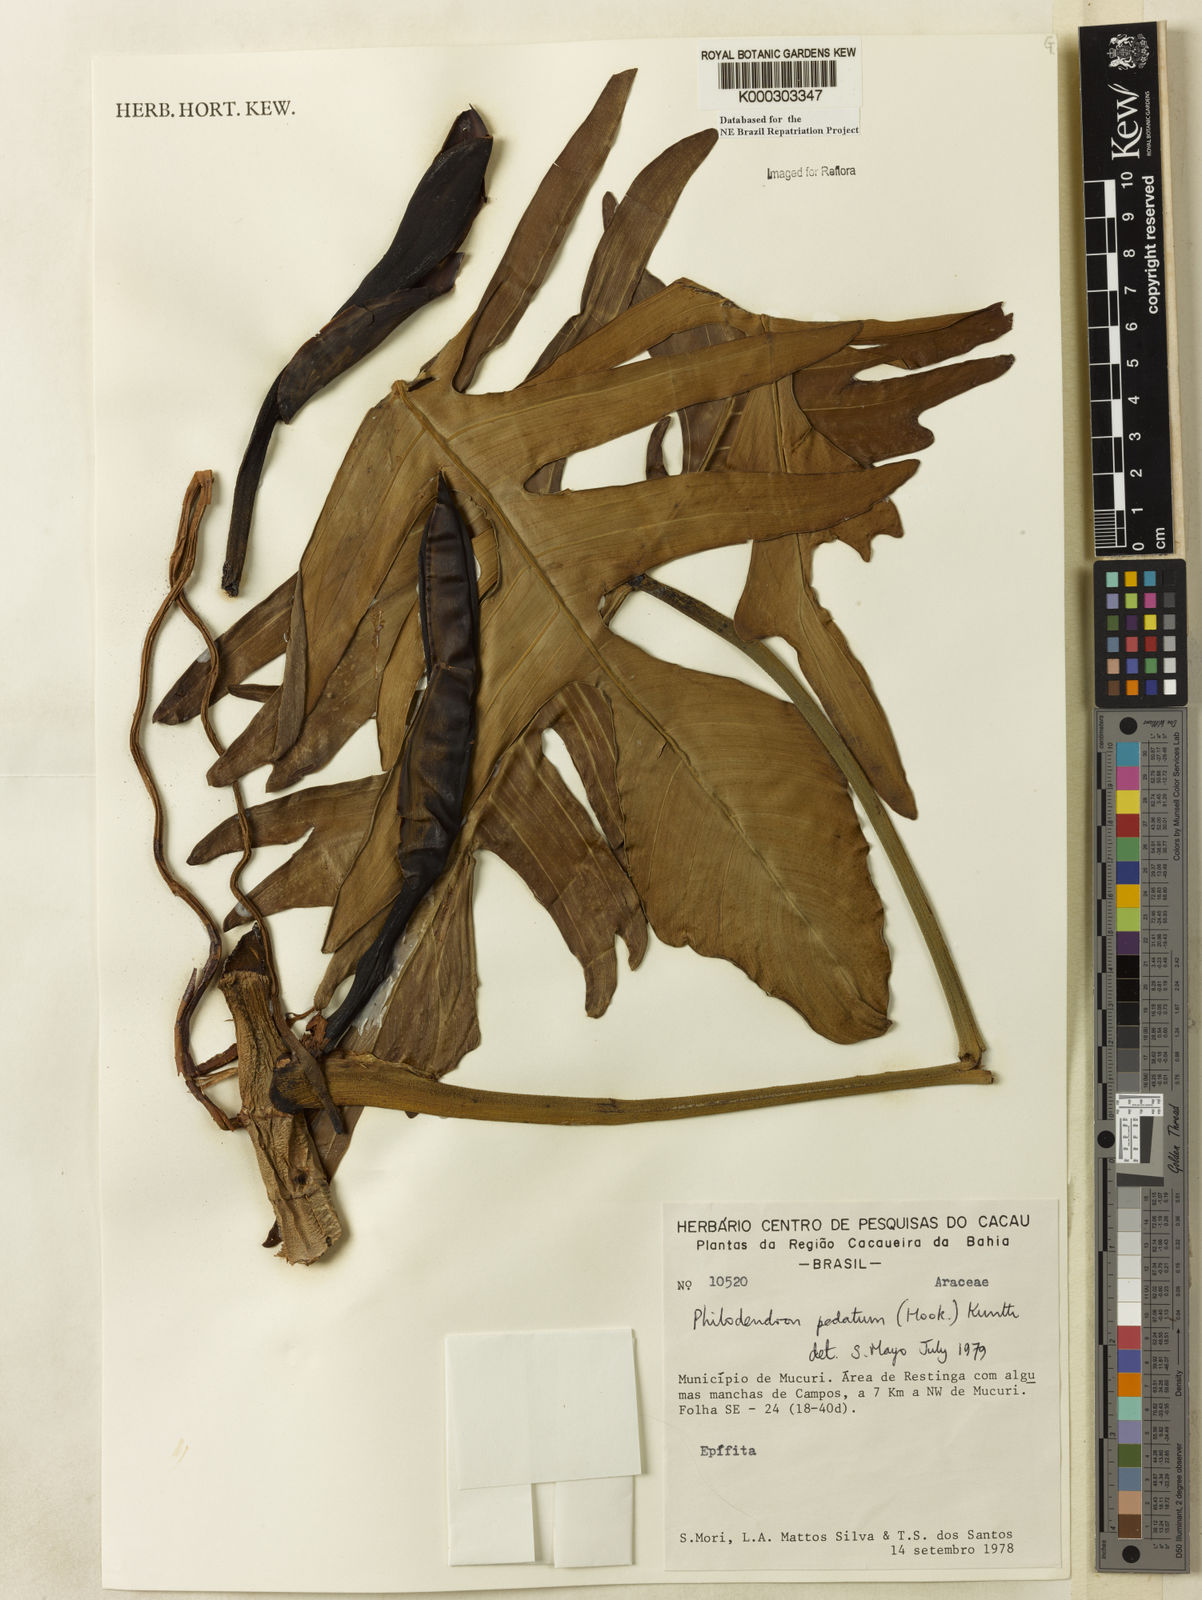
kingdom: Plantae
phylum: Tracheophyta
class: Liliopsida
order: Alismatales
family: Araceae
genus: Philodendron
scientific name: Philodendron pedatum
